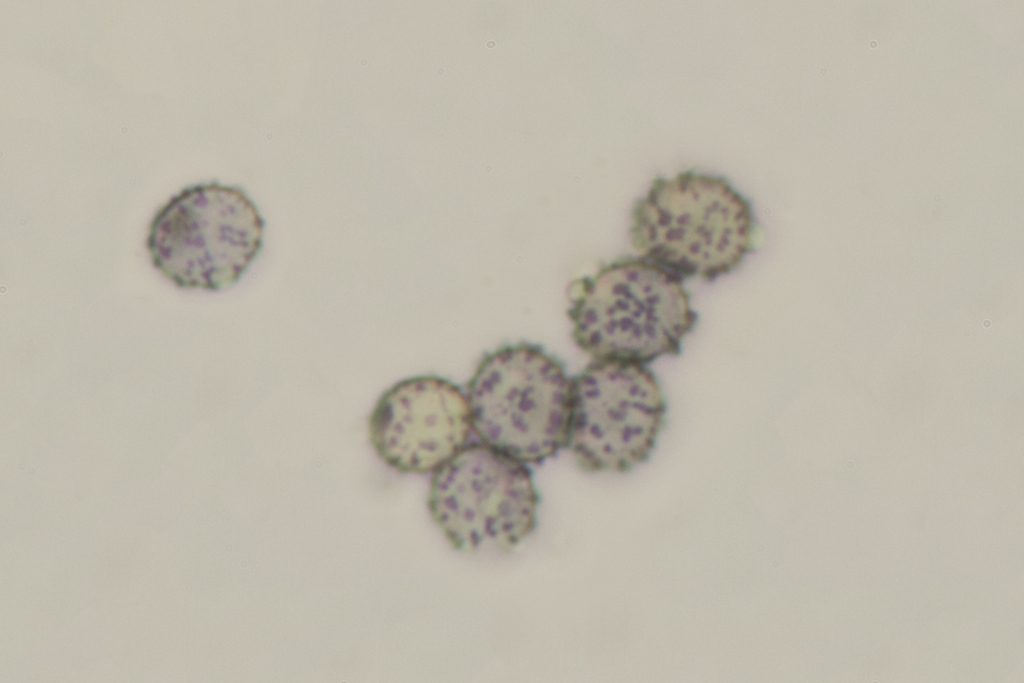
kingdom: Fungi
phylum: Basidiomycota
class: Agaricomycetes
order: Russulales
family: Russulaceae
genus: Russula
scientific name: Russula fontqueri
